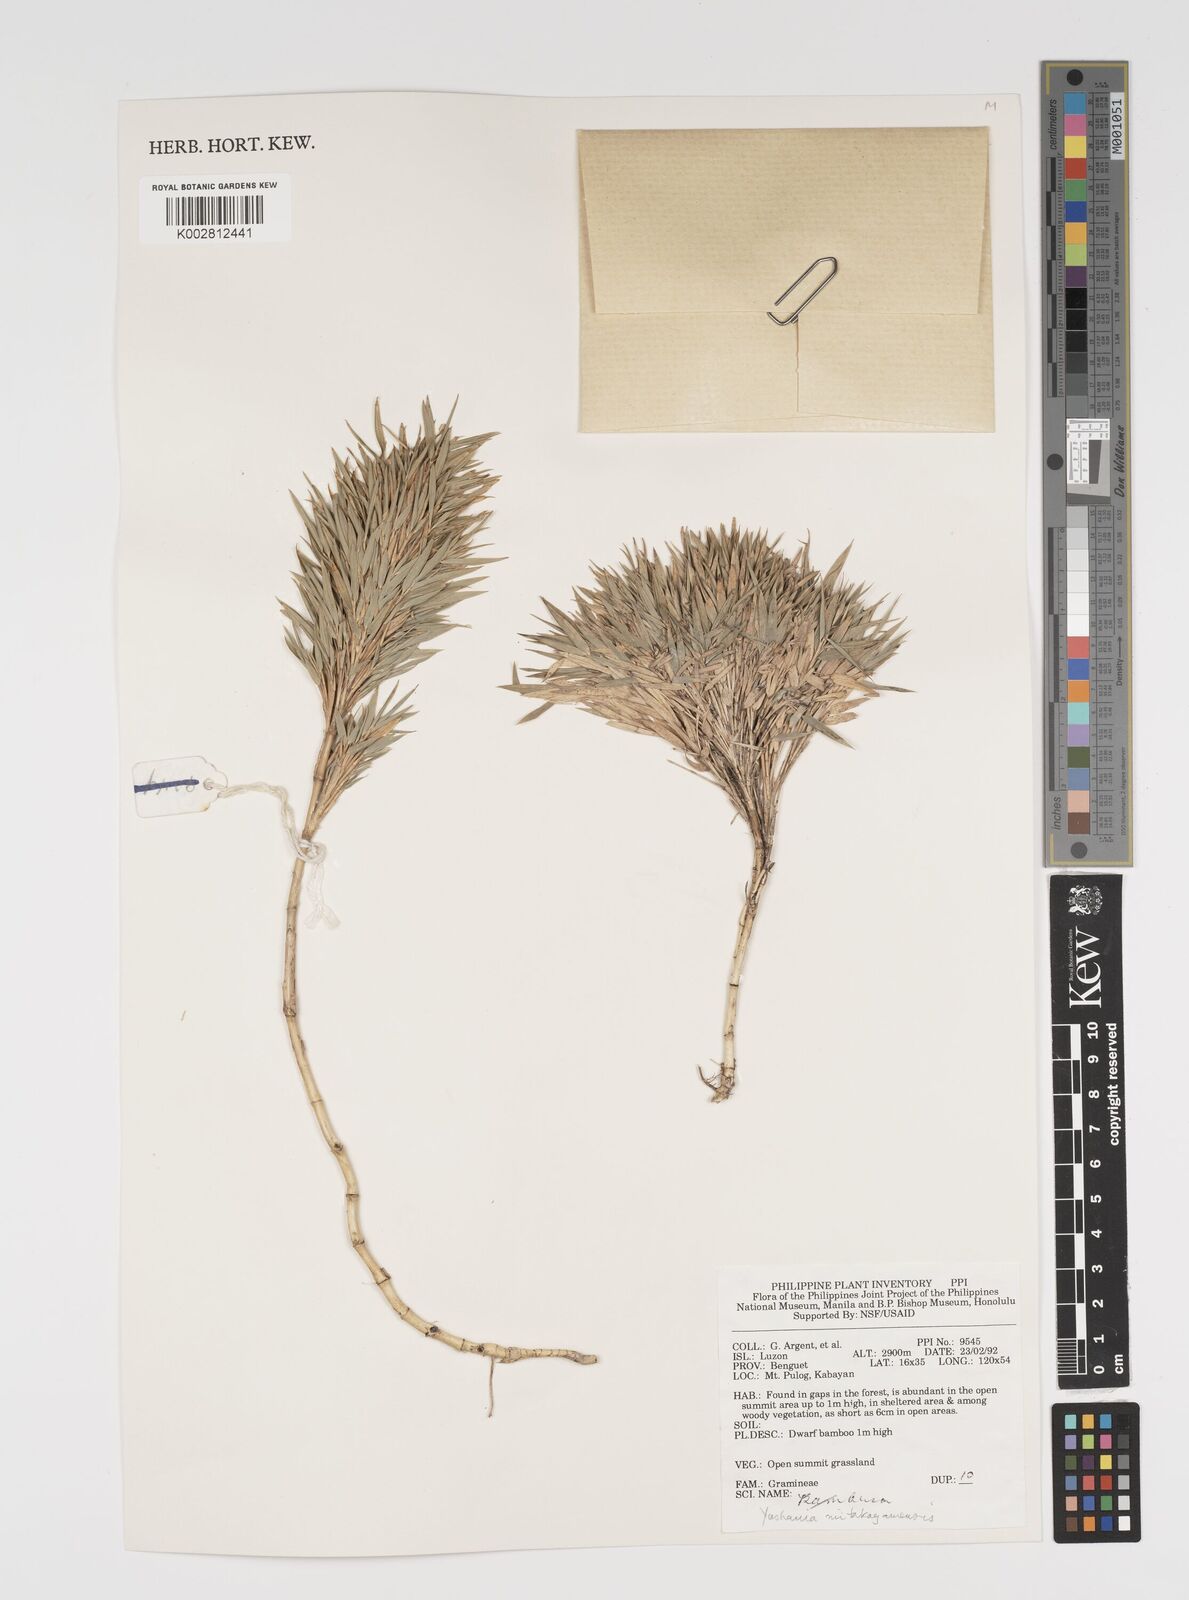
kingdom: Plantae
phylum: Tracheophyta
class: Liliopsida
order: Poales
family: Poaceae
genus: Yushania
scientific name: Yushania niitakayamensis
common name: Yushan cane
